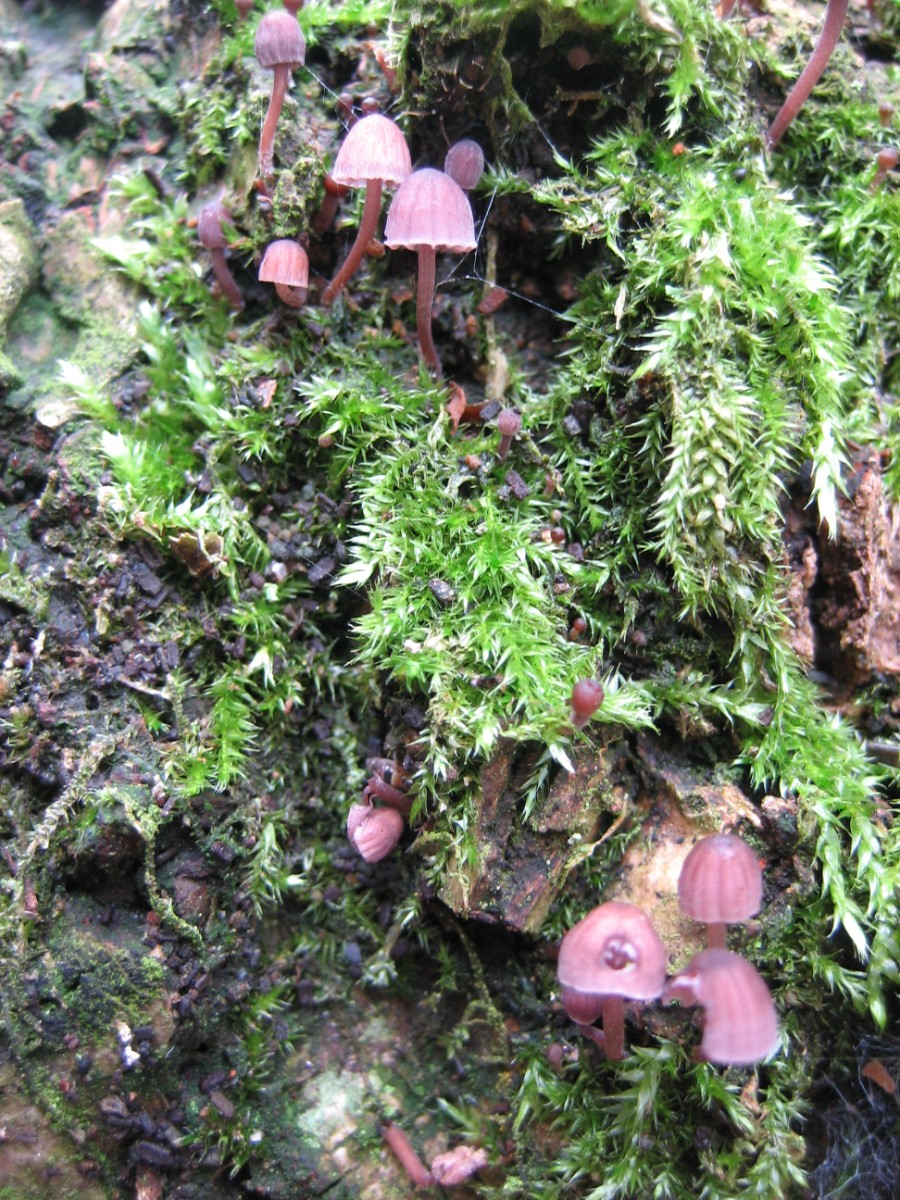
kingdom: Fungi
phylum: Basidiomycota
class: Agaricomycetes
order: Agaricales
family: Mycenaceae
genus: Mycena
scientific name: Mycena meliigena
